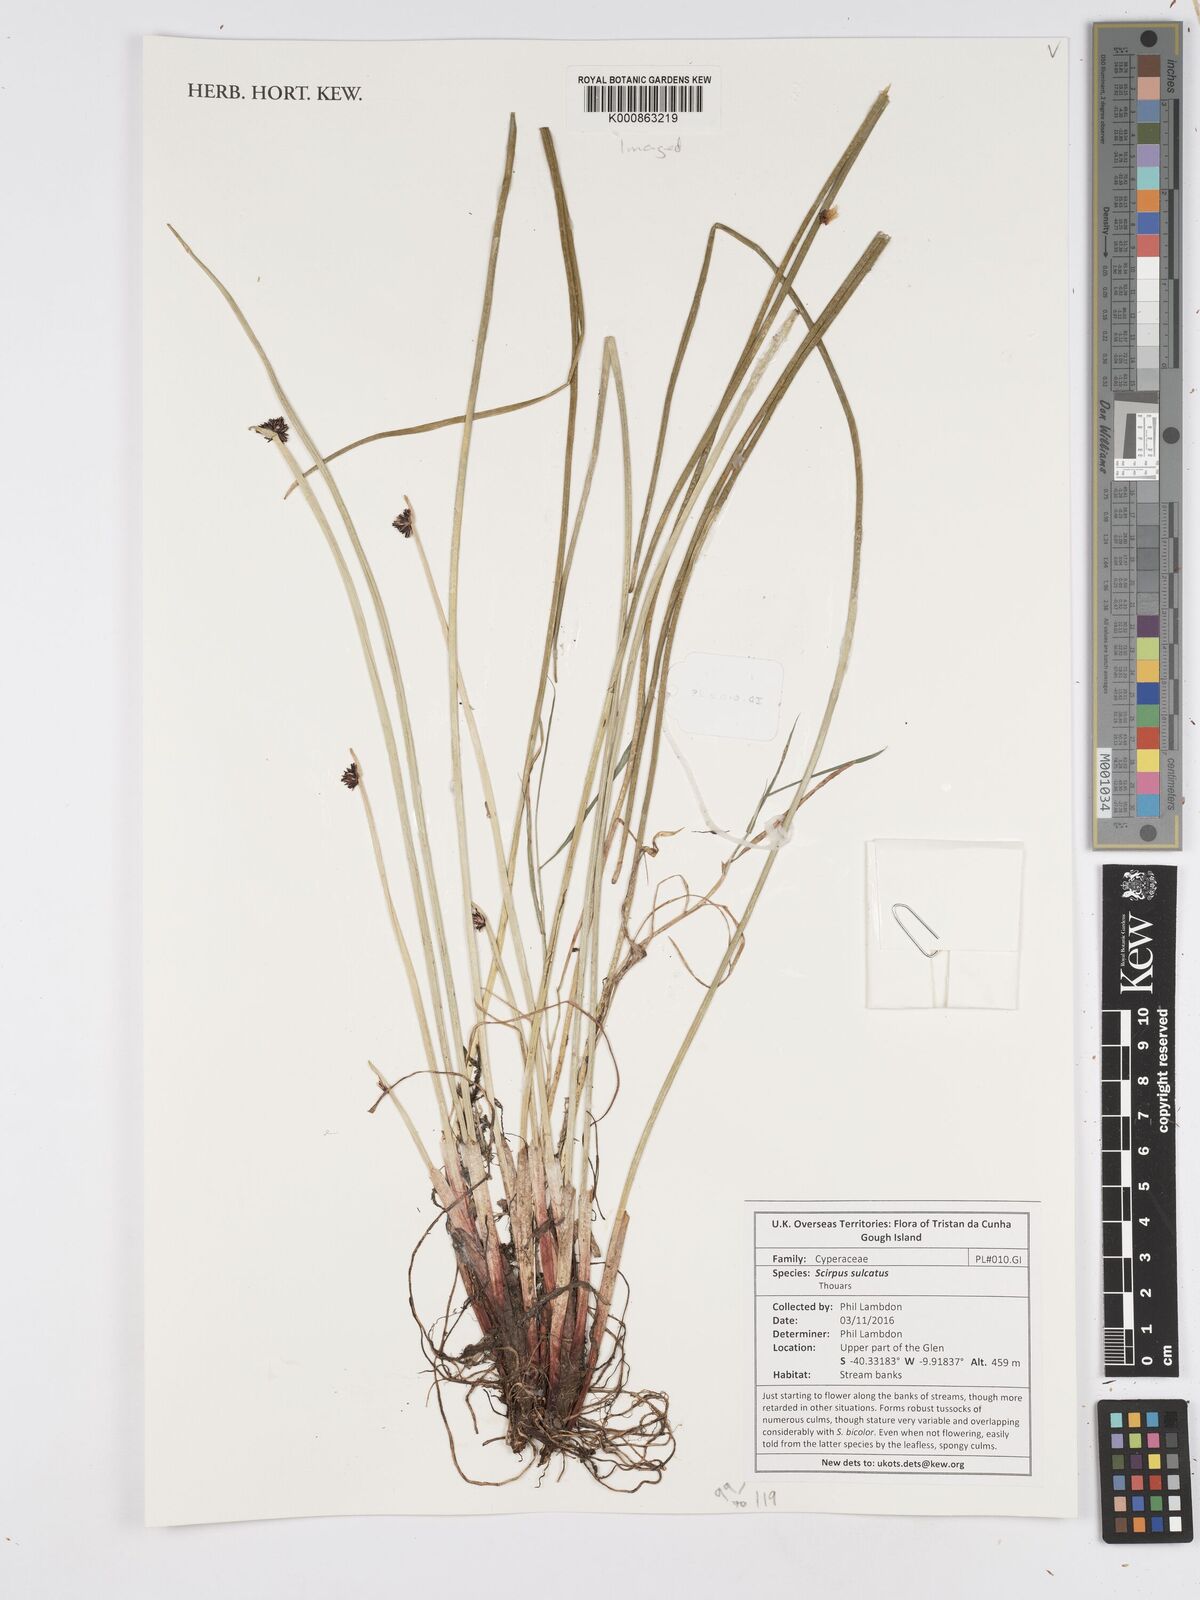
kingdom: Plantae
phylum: Tracheophyta
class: Liliopsida
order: Poales
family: Cyperaceae
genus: Isolepis
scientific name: Isolepis sulcata
